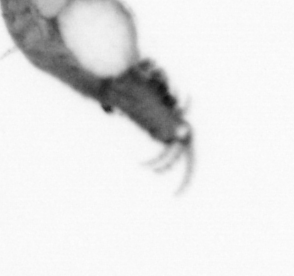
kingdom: Animalia
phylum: Annelida
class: Polychaeta
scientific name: Polychaeta
